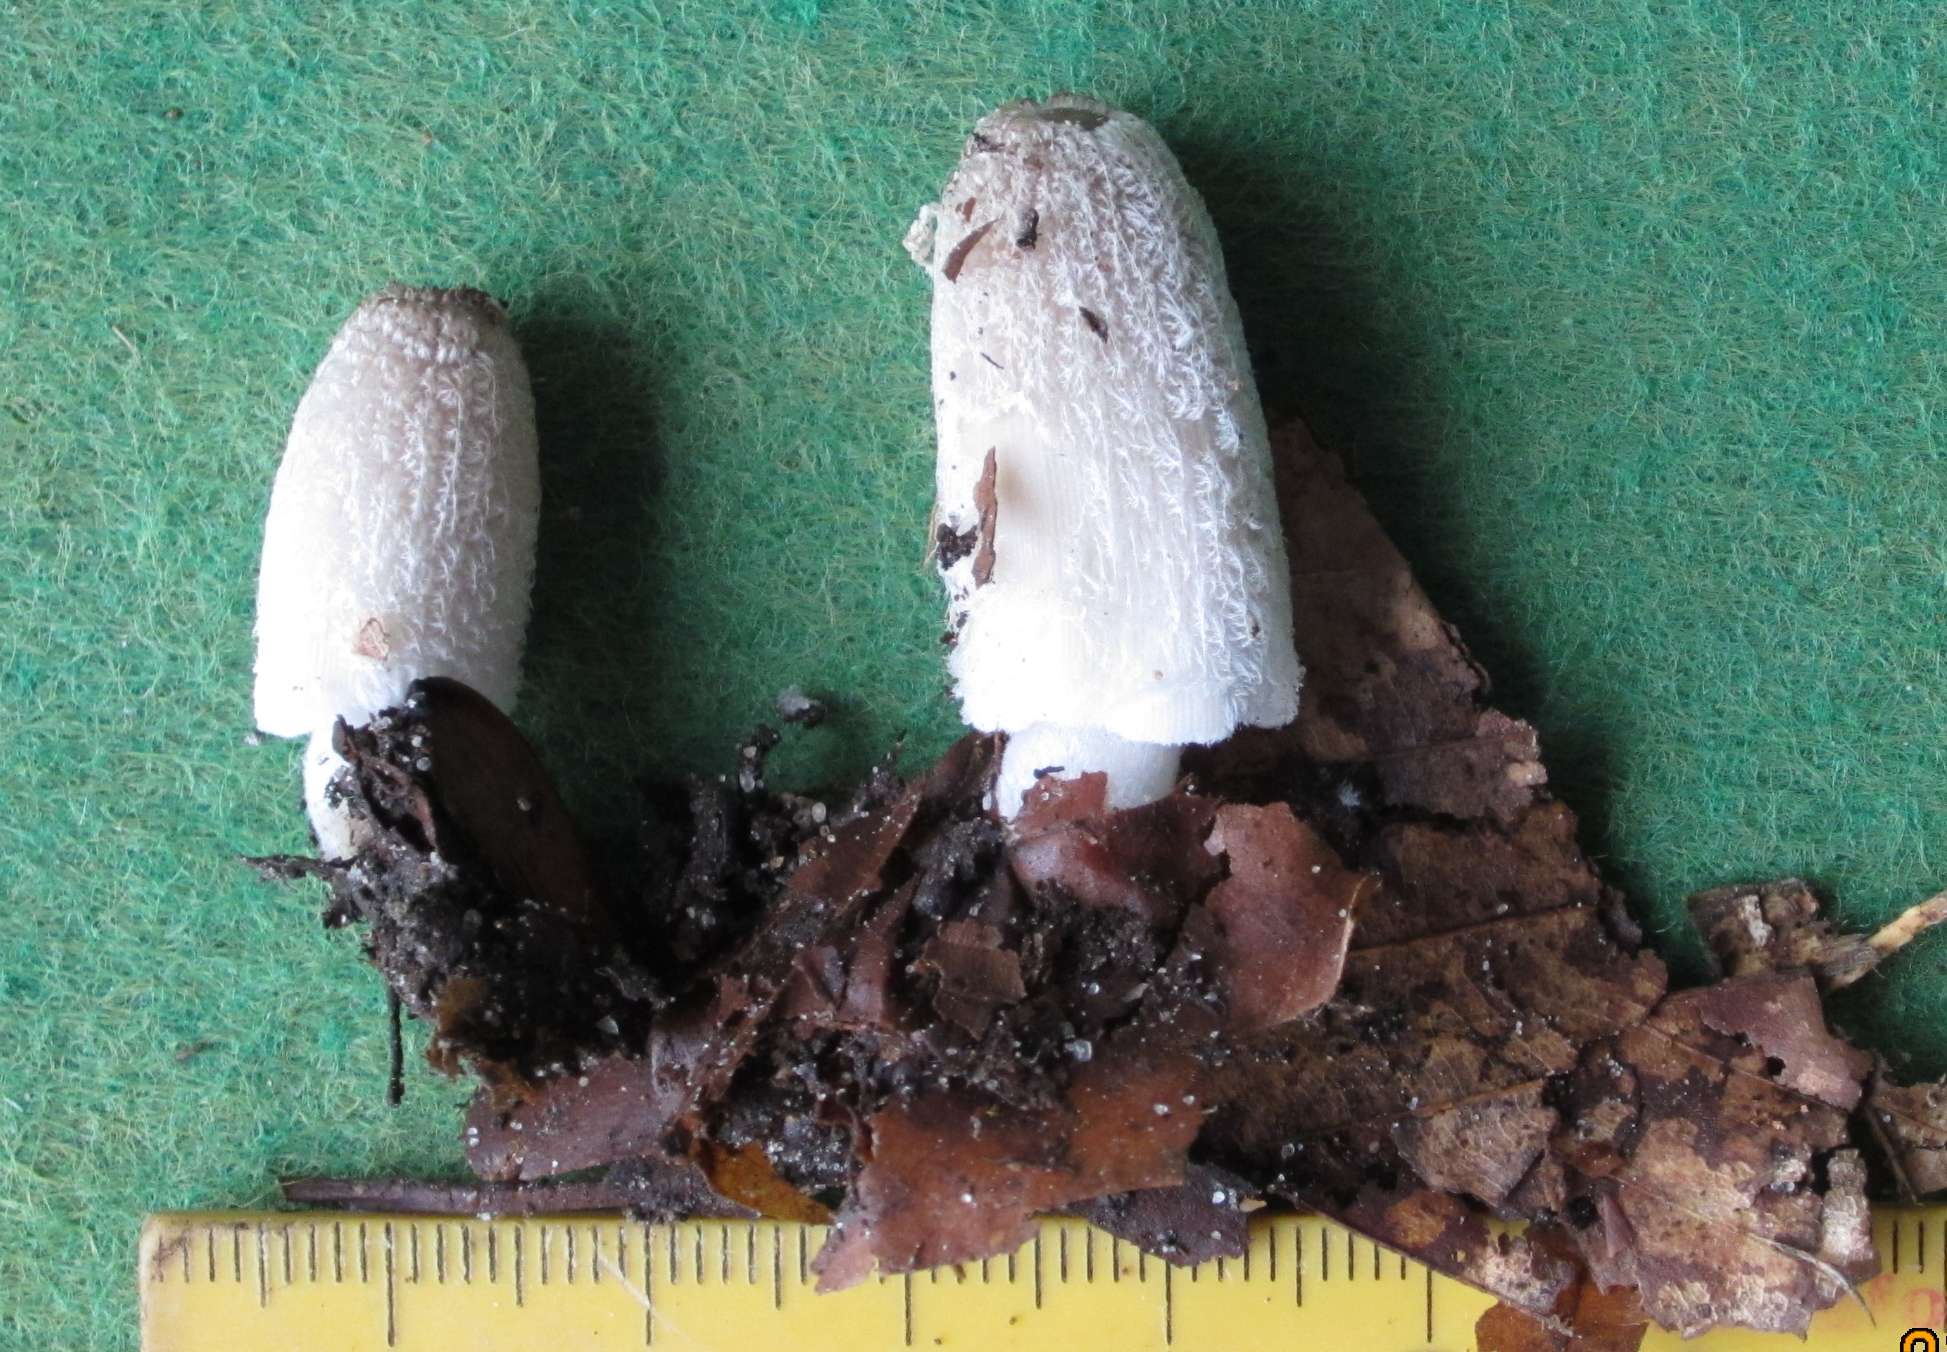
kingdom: Fungi
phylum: Basidiomycota
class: Agaricomycetes
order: Agaricales
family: Psathyrellaceae
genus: Coprinopsis
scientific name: Coprinopsis lagopus
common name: dunstokket blækhat
